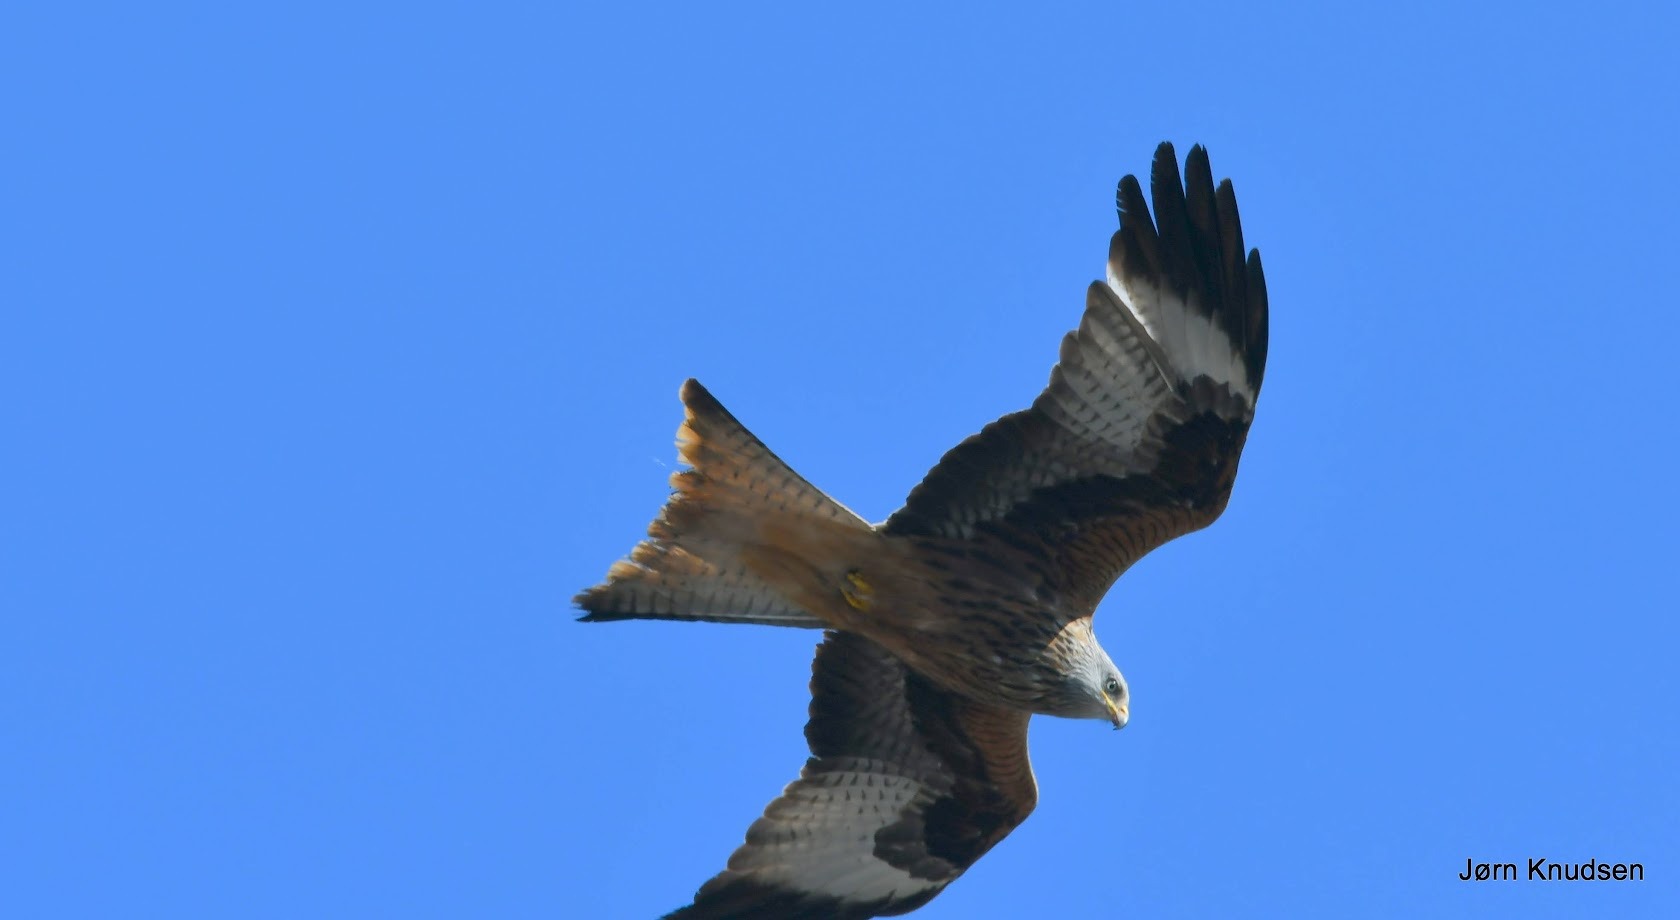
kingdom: Animalia
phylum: Chordata
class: Aves
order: Accipitriformes
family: Accipitridae
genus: Milvus
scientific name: Milvus milvus
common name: Rød glente
